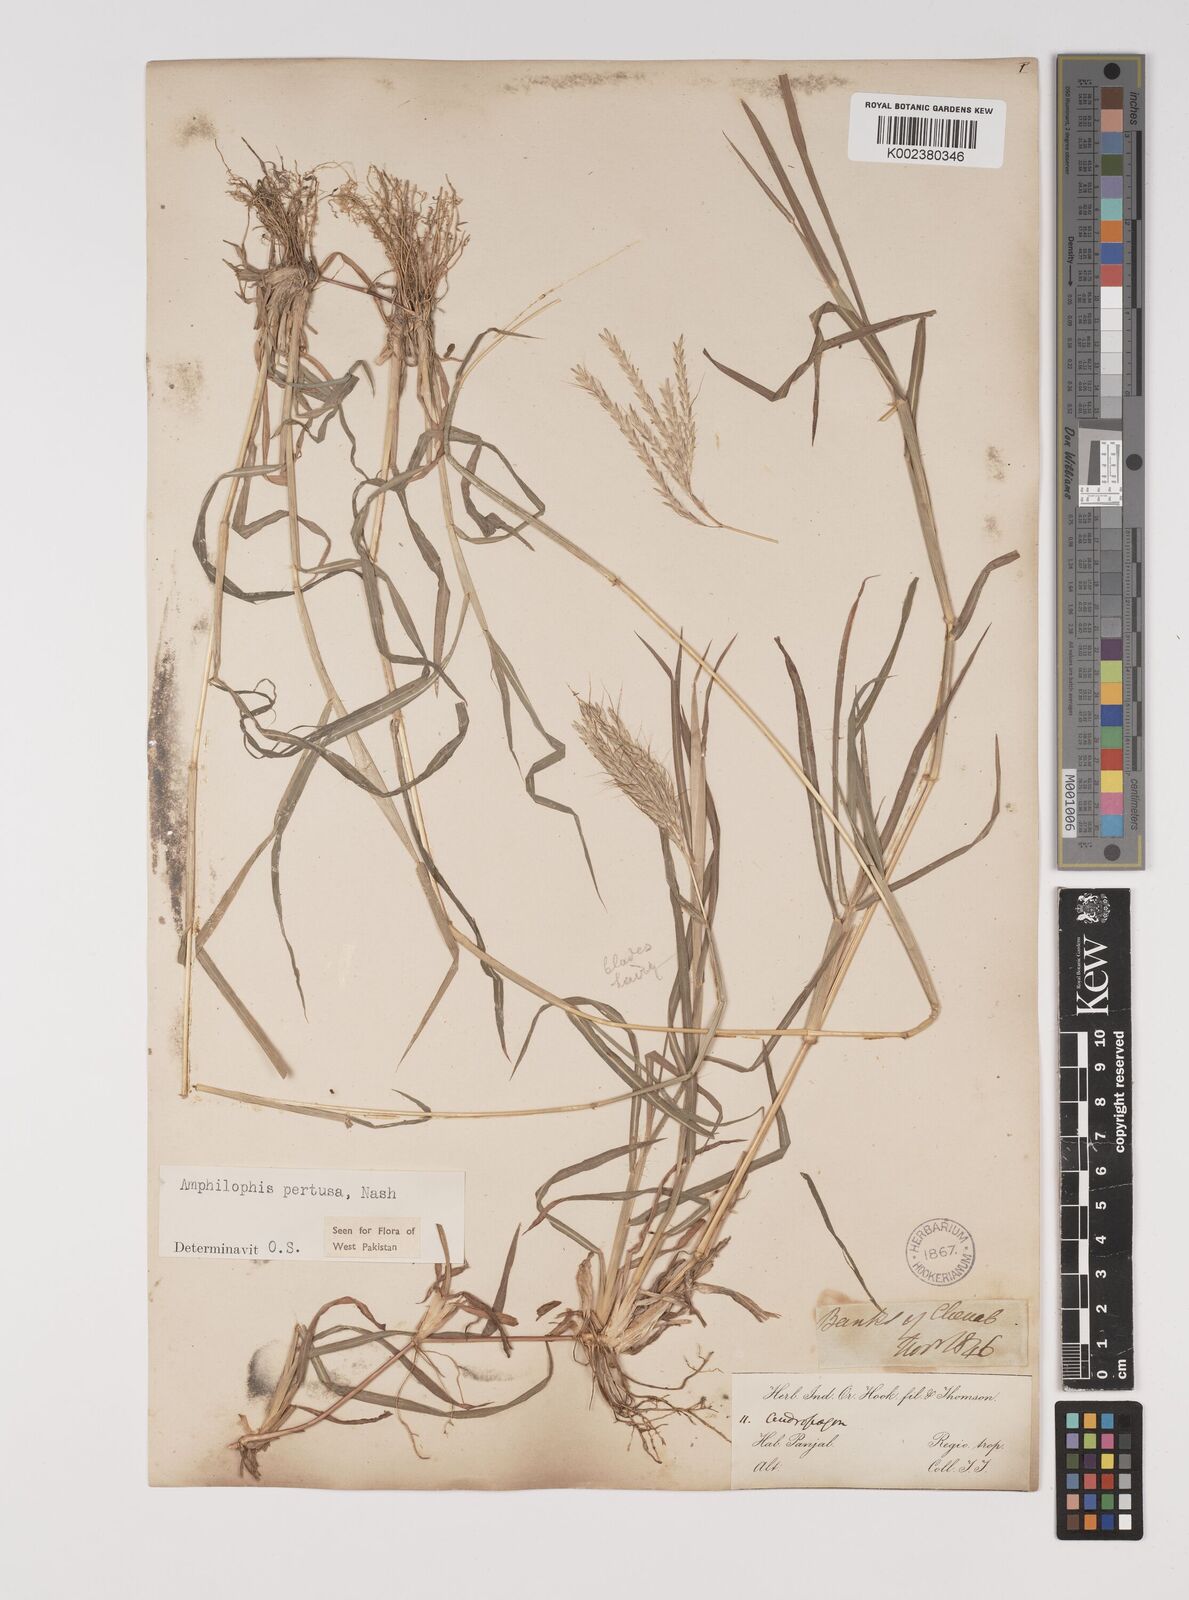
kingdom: Plantae
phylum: Tracheophyta
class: Liliopsida
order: Poales
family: Poaceae
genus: Bothriochloa
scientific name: Bothriochloa pertusa
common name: Pitted beardgrass
